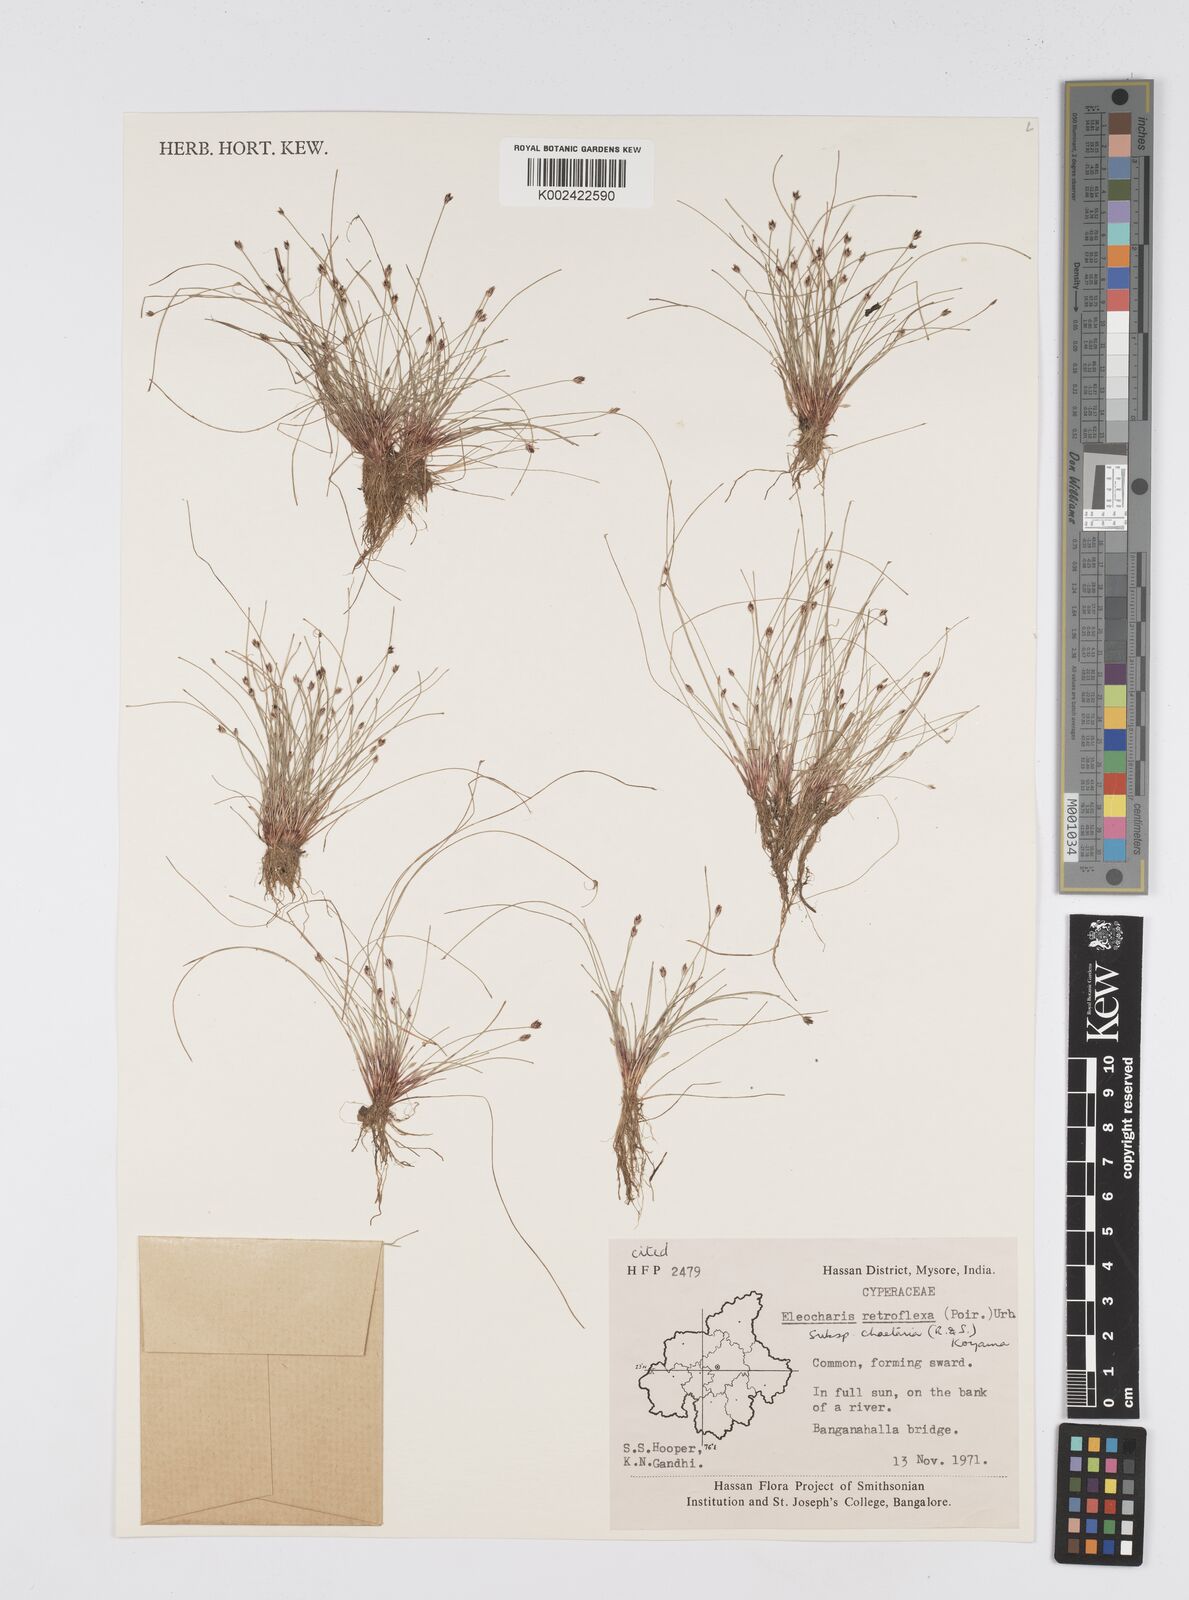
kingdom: Plantae
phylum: Tracheophyta
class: Liliopsida
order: Poales
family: Cyperaceae
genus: Eleocharis
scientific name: Eleocharis retroflexa
